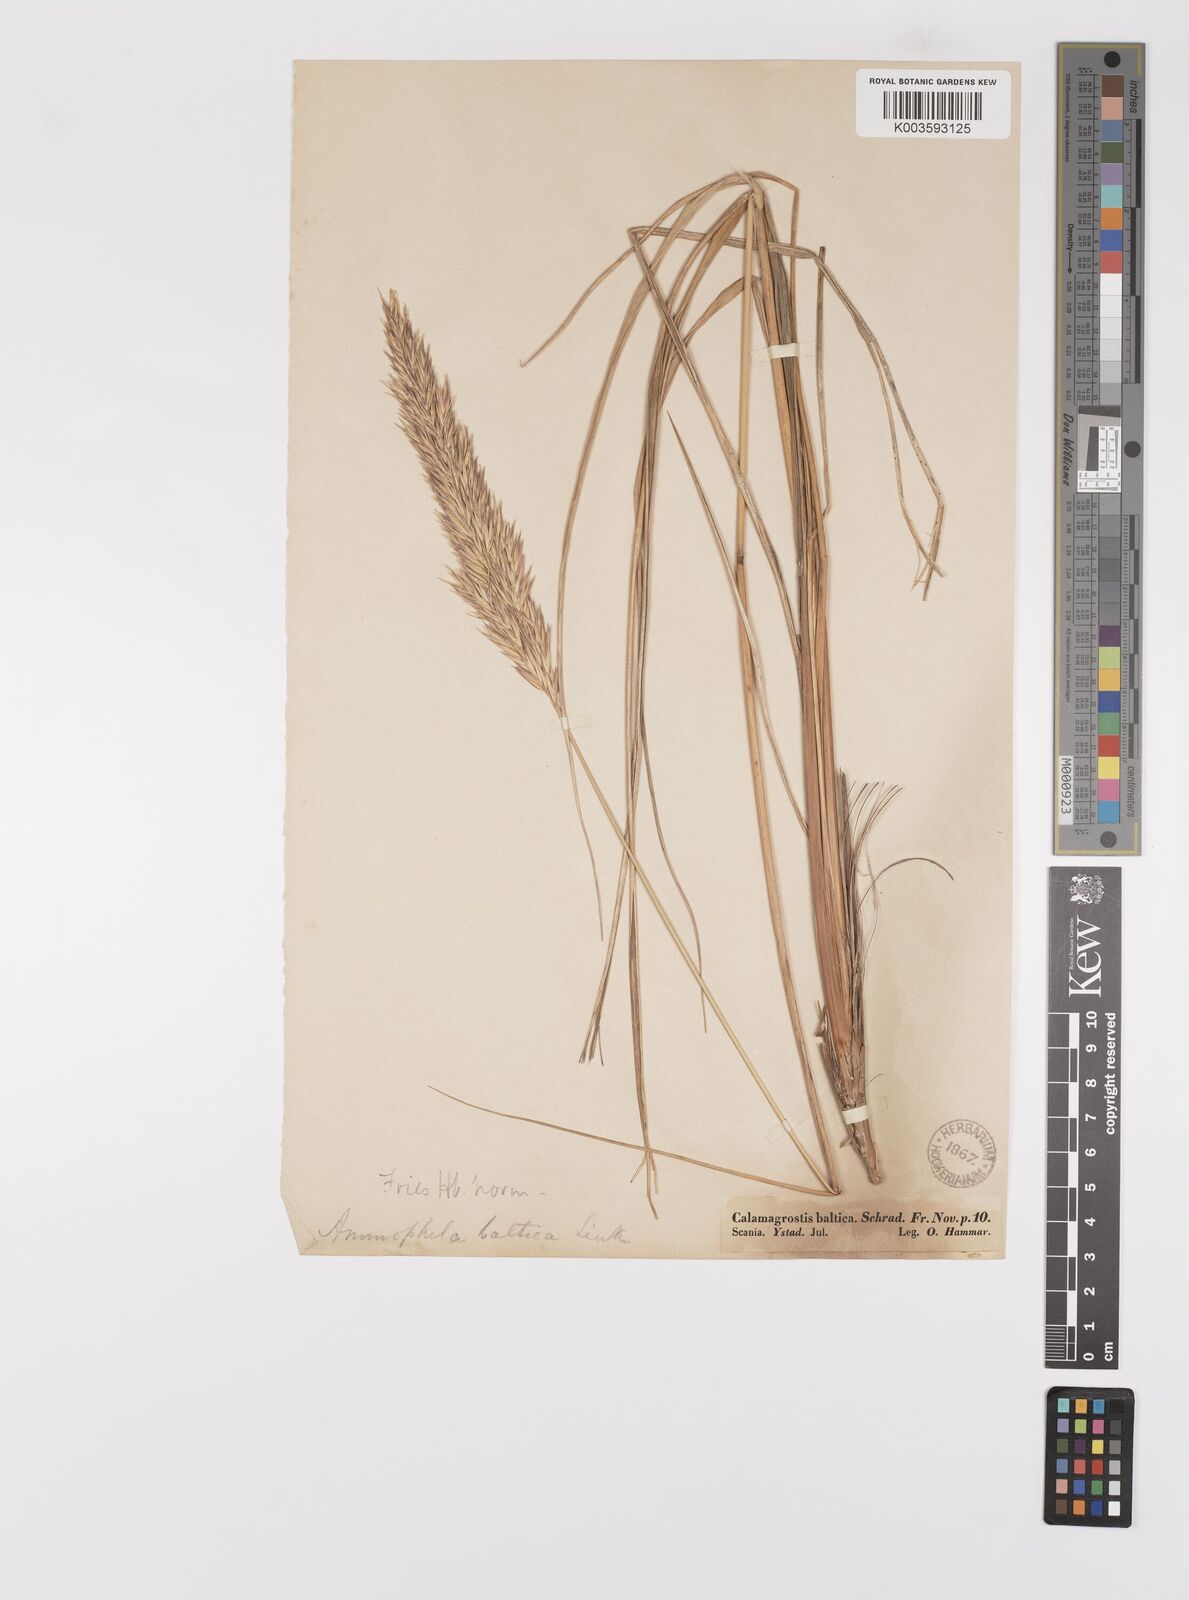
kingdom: Plantae
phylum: Tracheophyta
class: Liliopsida
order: Poales
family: Poaceae
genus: Calamagrostis
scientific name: Calamagrostis baltica
